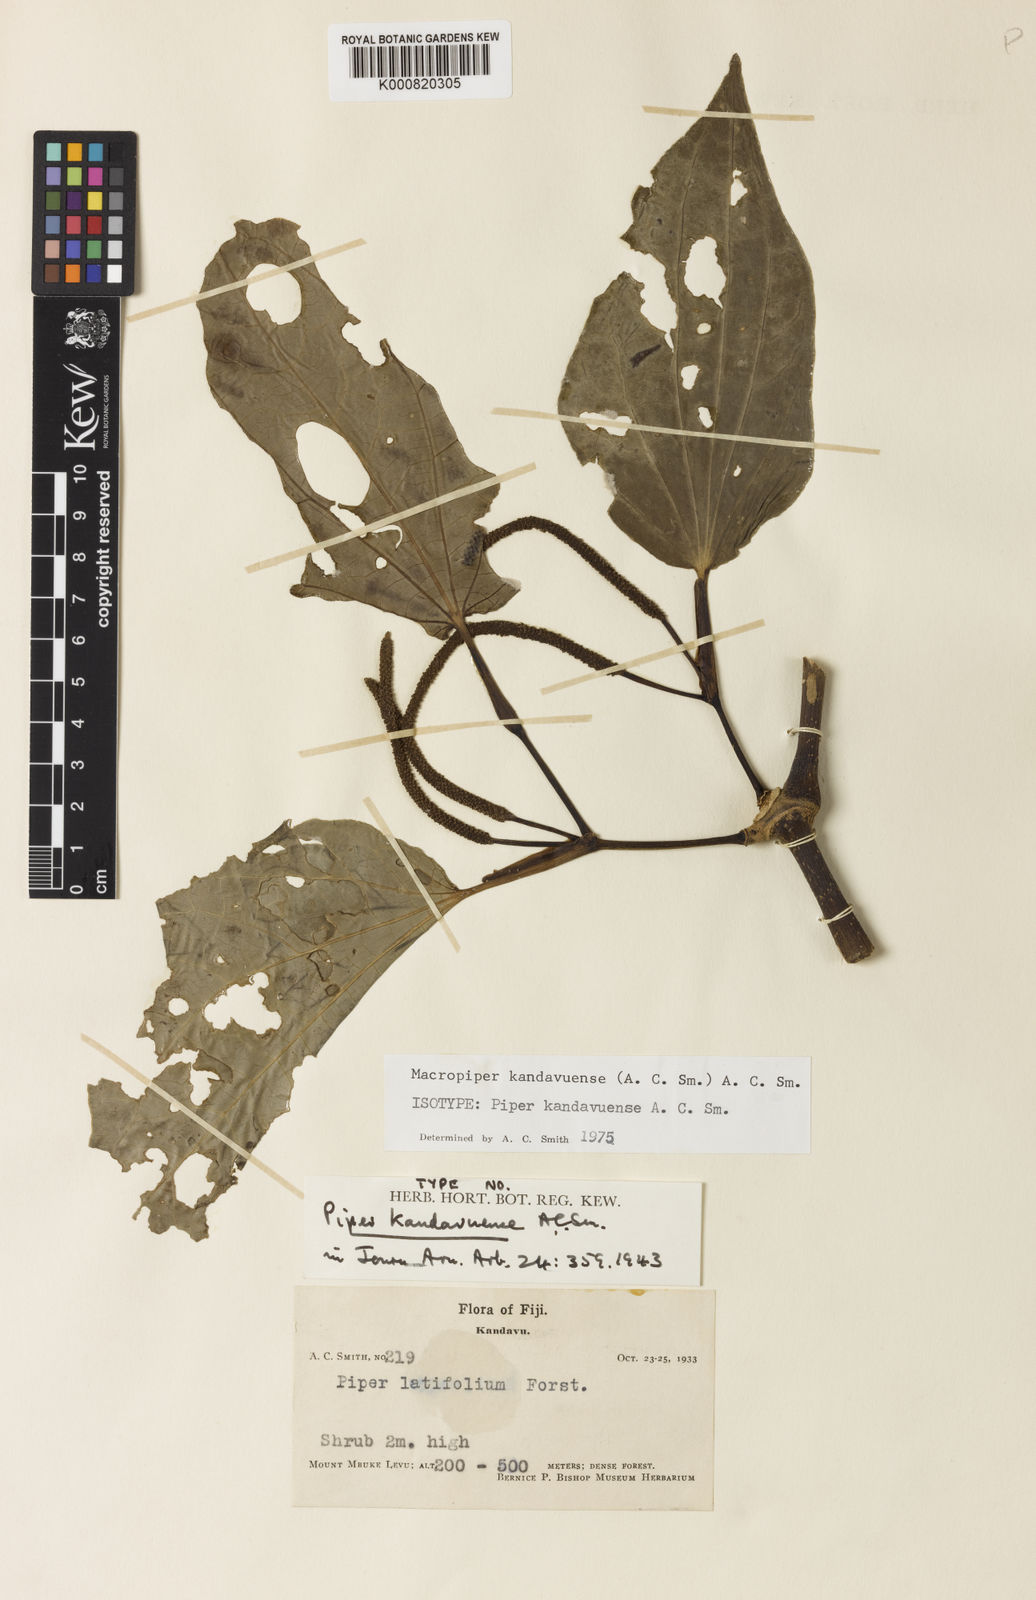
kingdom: Plantae
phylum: Tracheophyta
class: Magnoliopsida
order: Piperales
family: Piperaceae
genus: Macropiper
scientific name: Macropiper kandavuense
